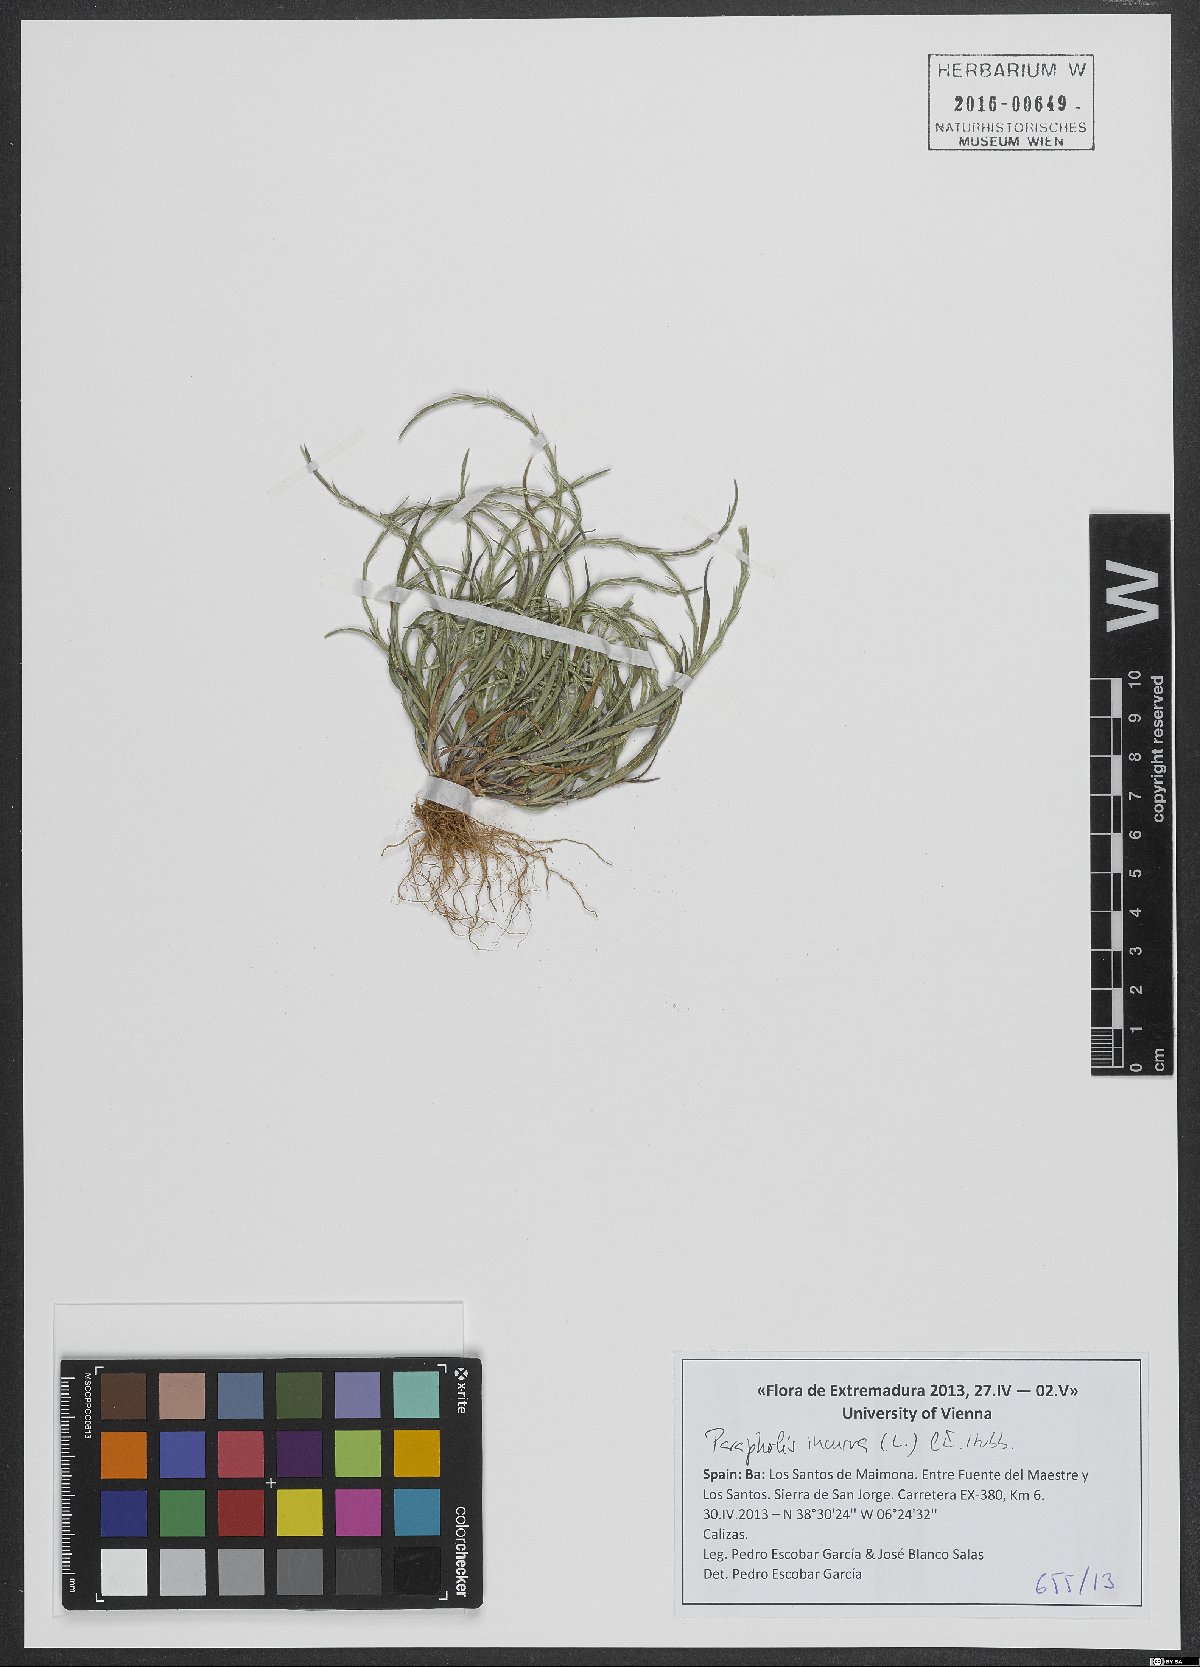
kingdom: Plantae
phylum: Tracheophyta
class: Liliopsida
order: Poales
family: Poaceae
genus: Parapholis
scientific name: Parapholis incurva
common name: Curved sicklegrass
